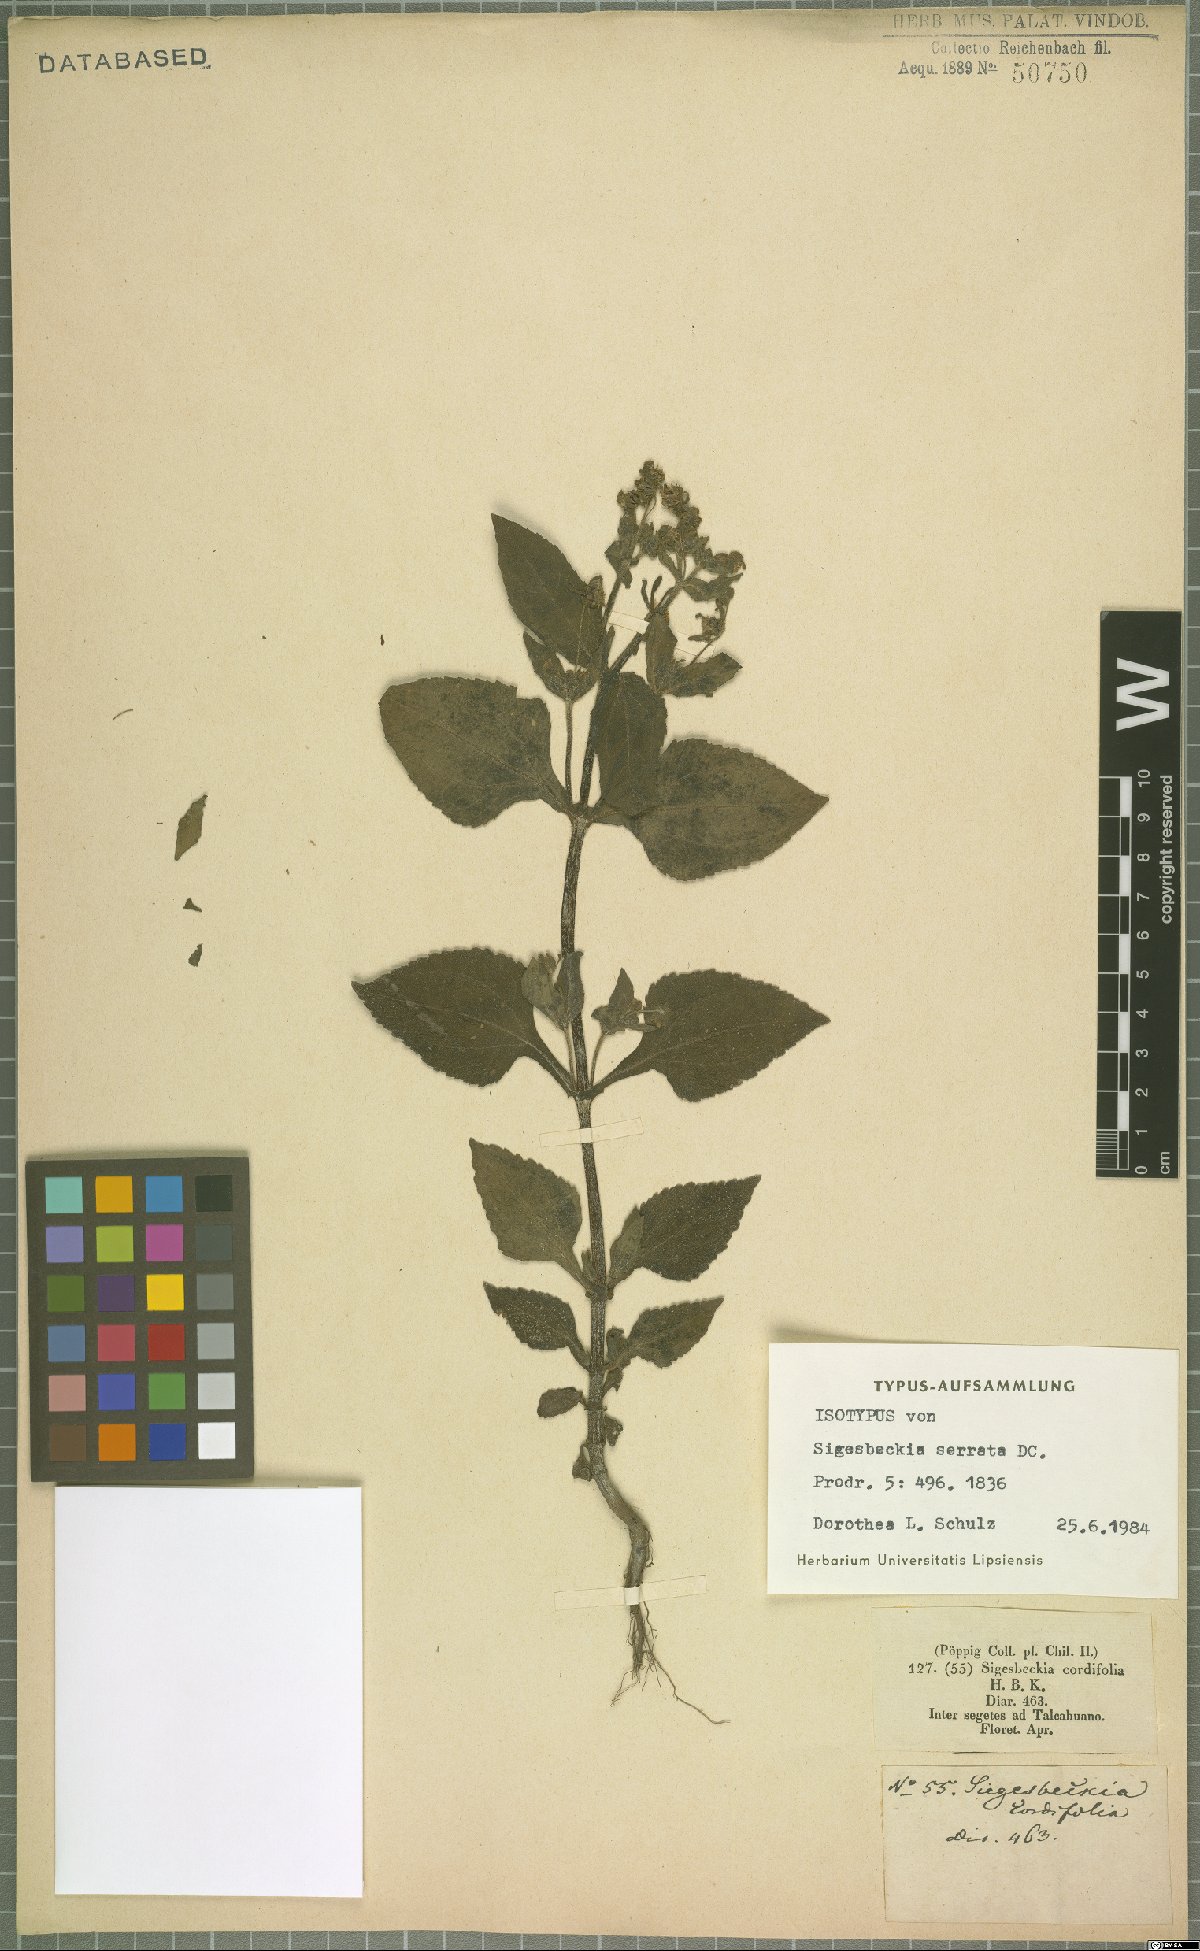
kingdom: Plantae
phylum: Tracheophyta
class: Magnoliopsida
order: Asterales
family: Asteraceae
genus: Sigesbeckia
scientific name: Sigesbeckia jorullensis
